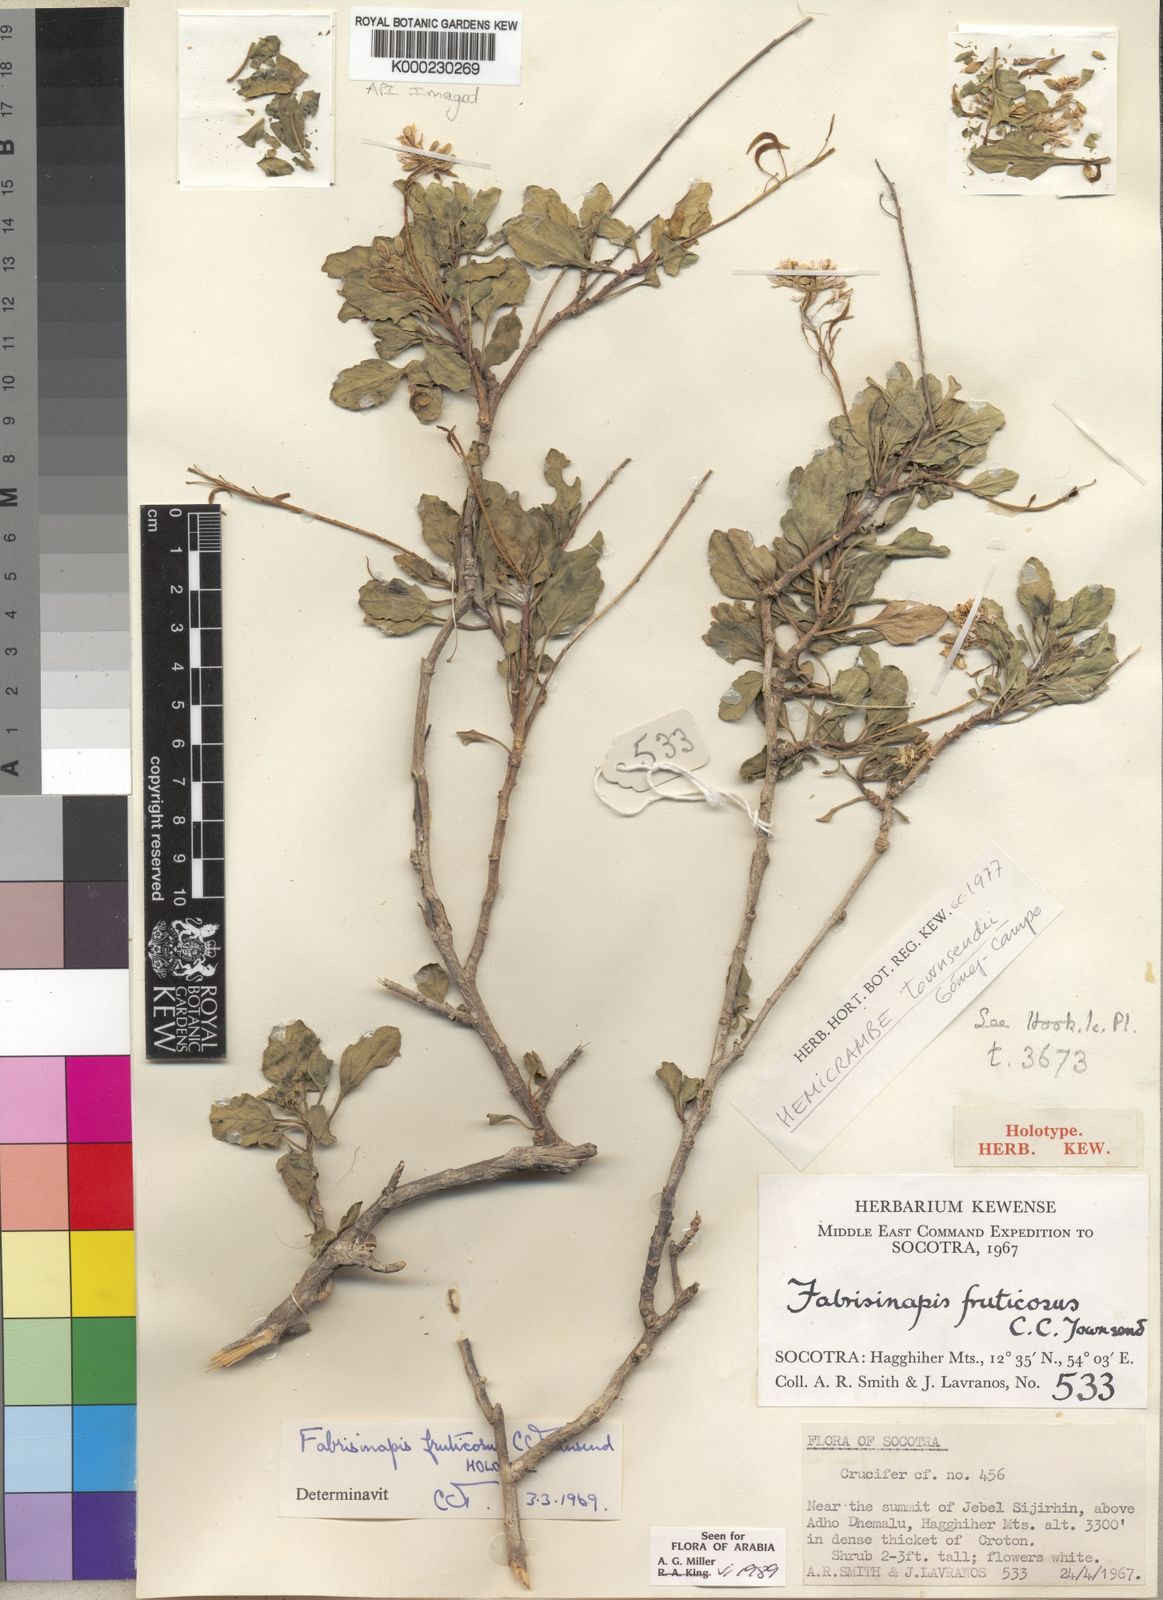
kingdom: Plantae
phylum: Tracheophyta
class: Magnoliopsida
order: Brassicales
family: Brassicaceae
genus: Hemicrambe
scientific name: Hemicrambe
